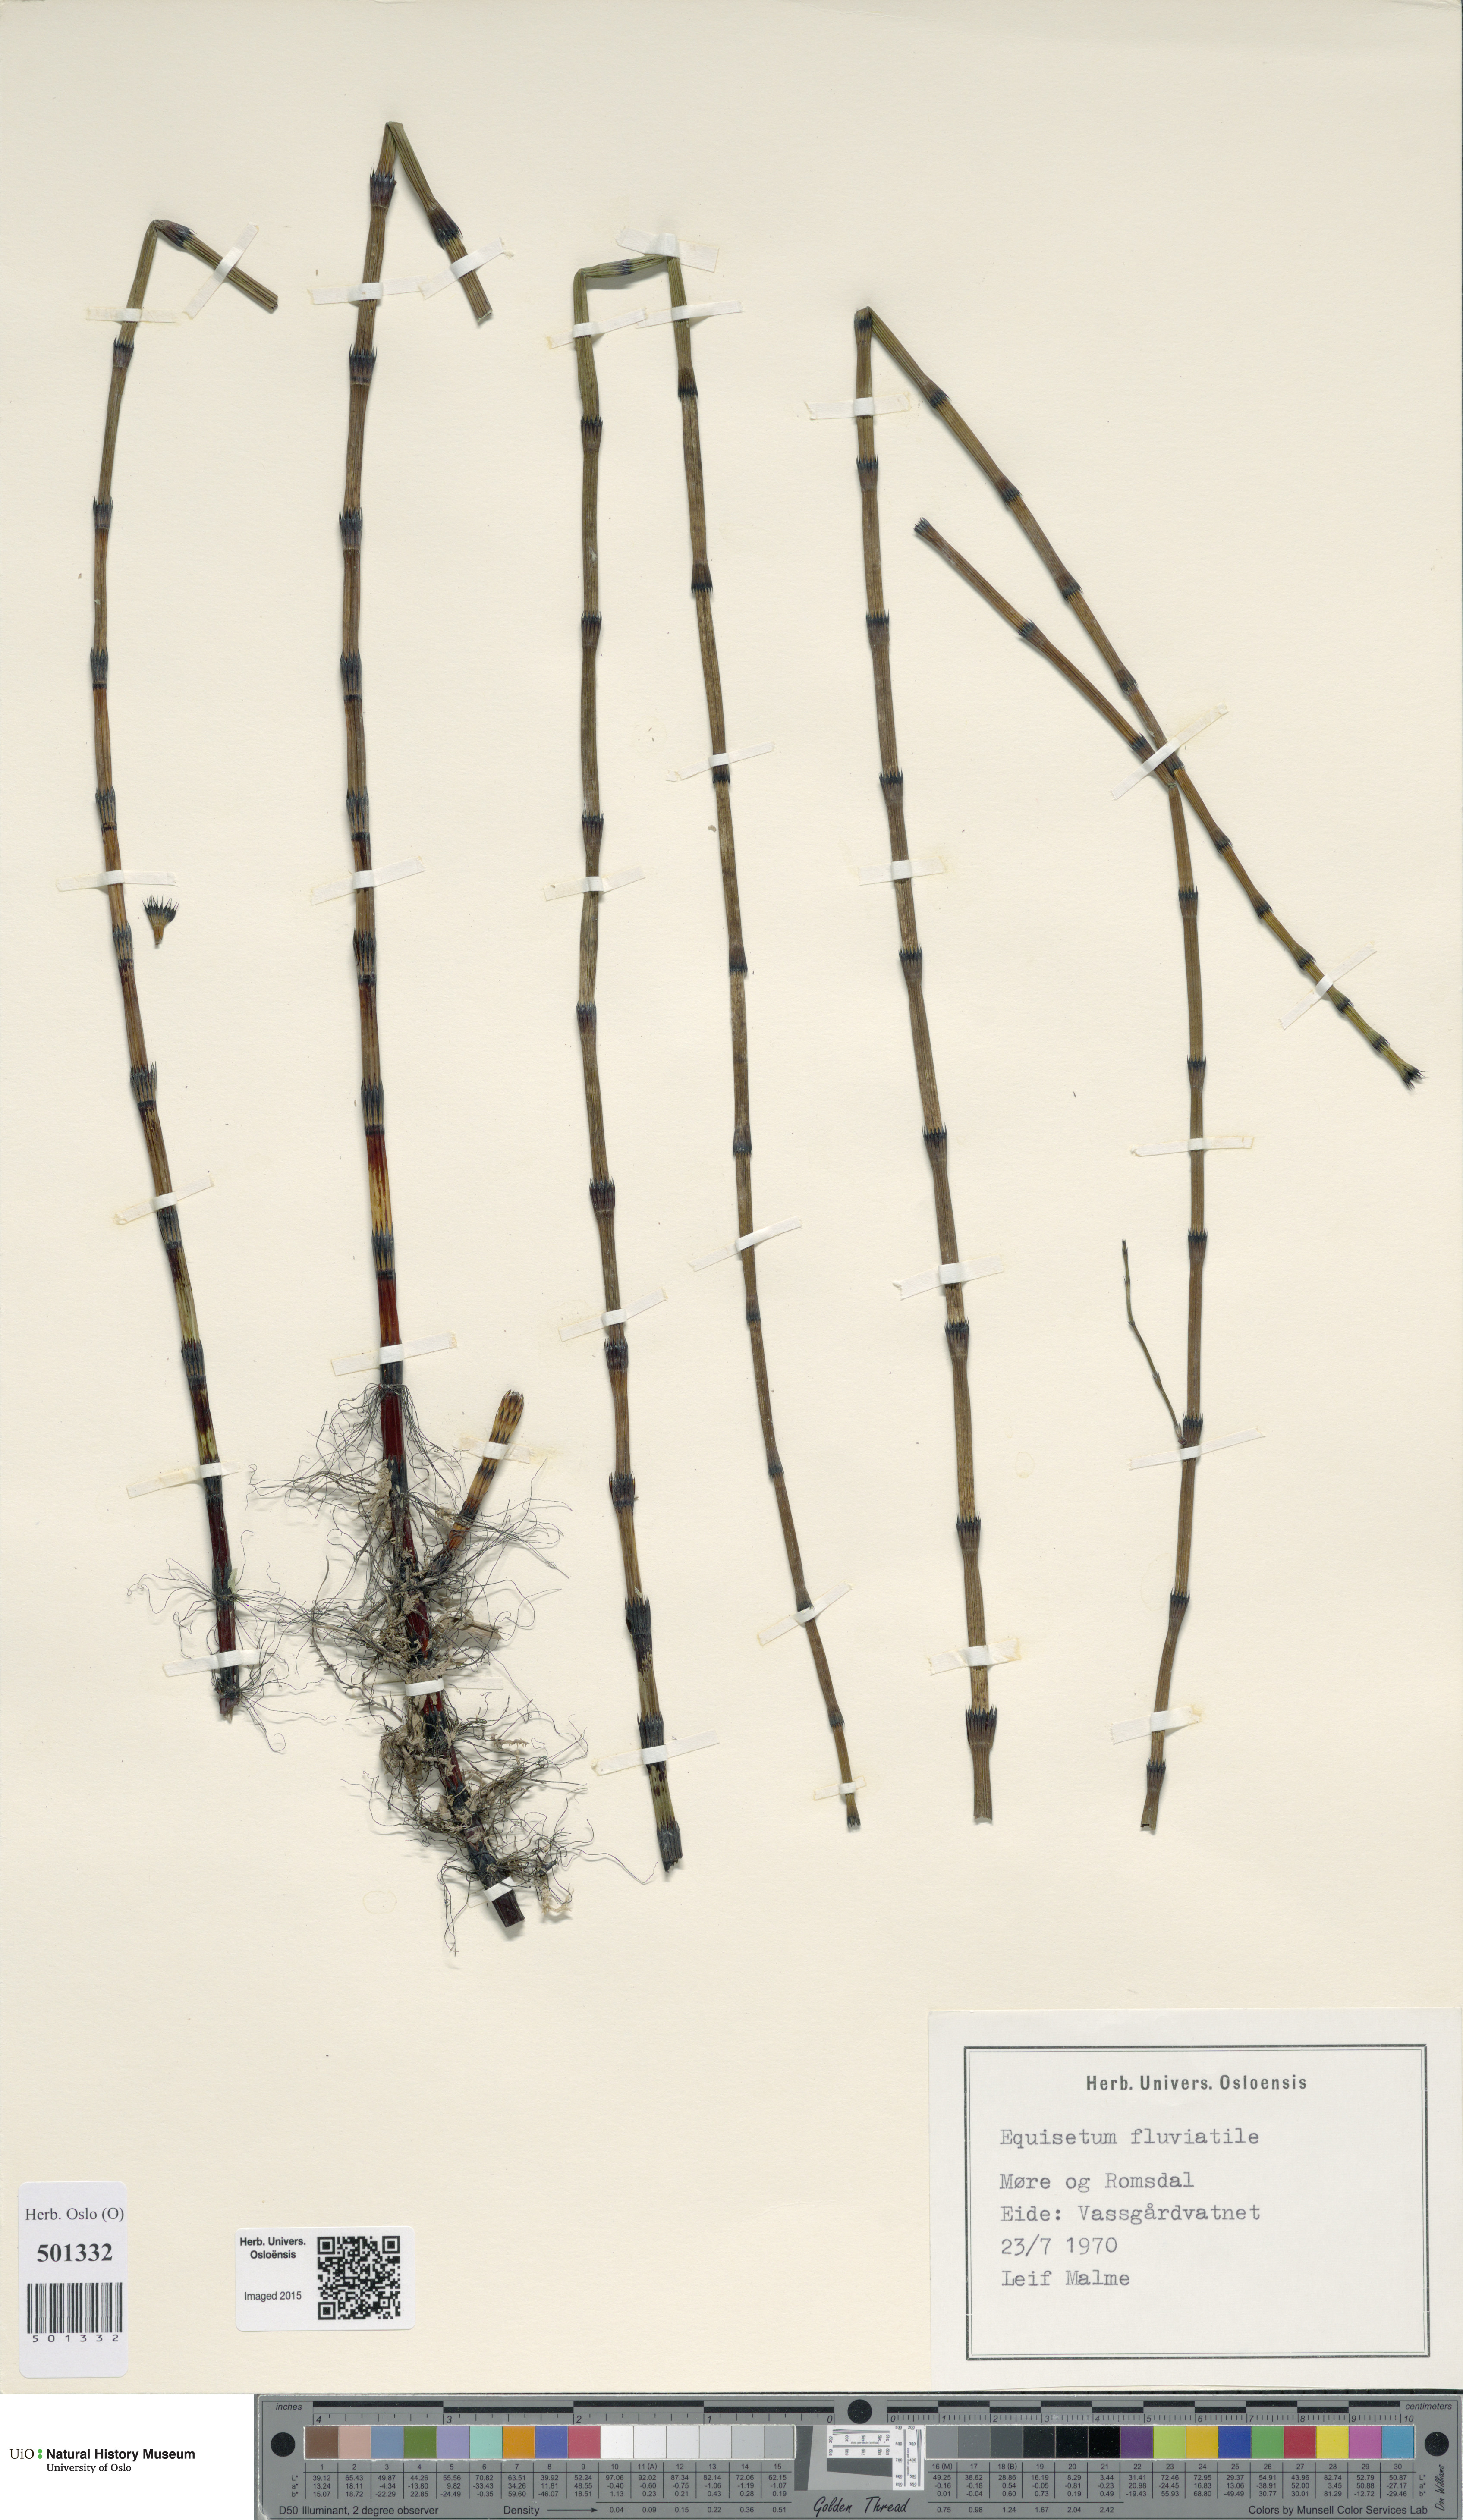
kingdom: Plantae
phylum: Tracheophyta
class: Polypodiopsida
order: Equisetales
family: Equisetaceae
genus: Equisetum
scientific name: Equisetum fluviatile
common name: Water horsetail
